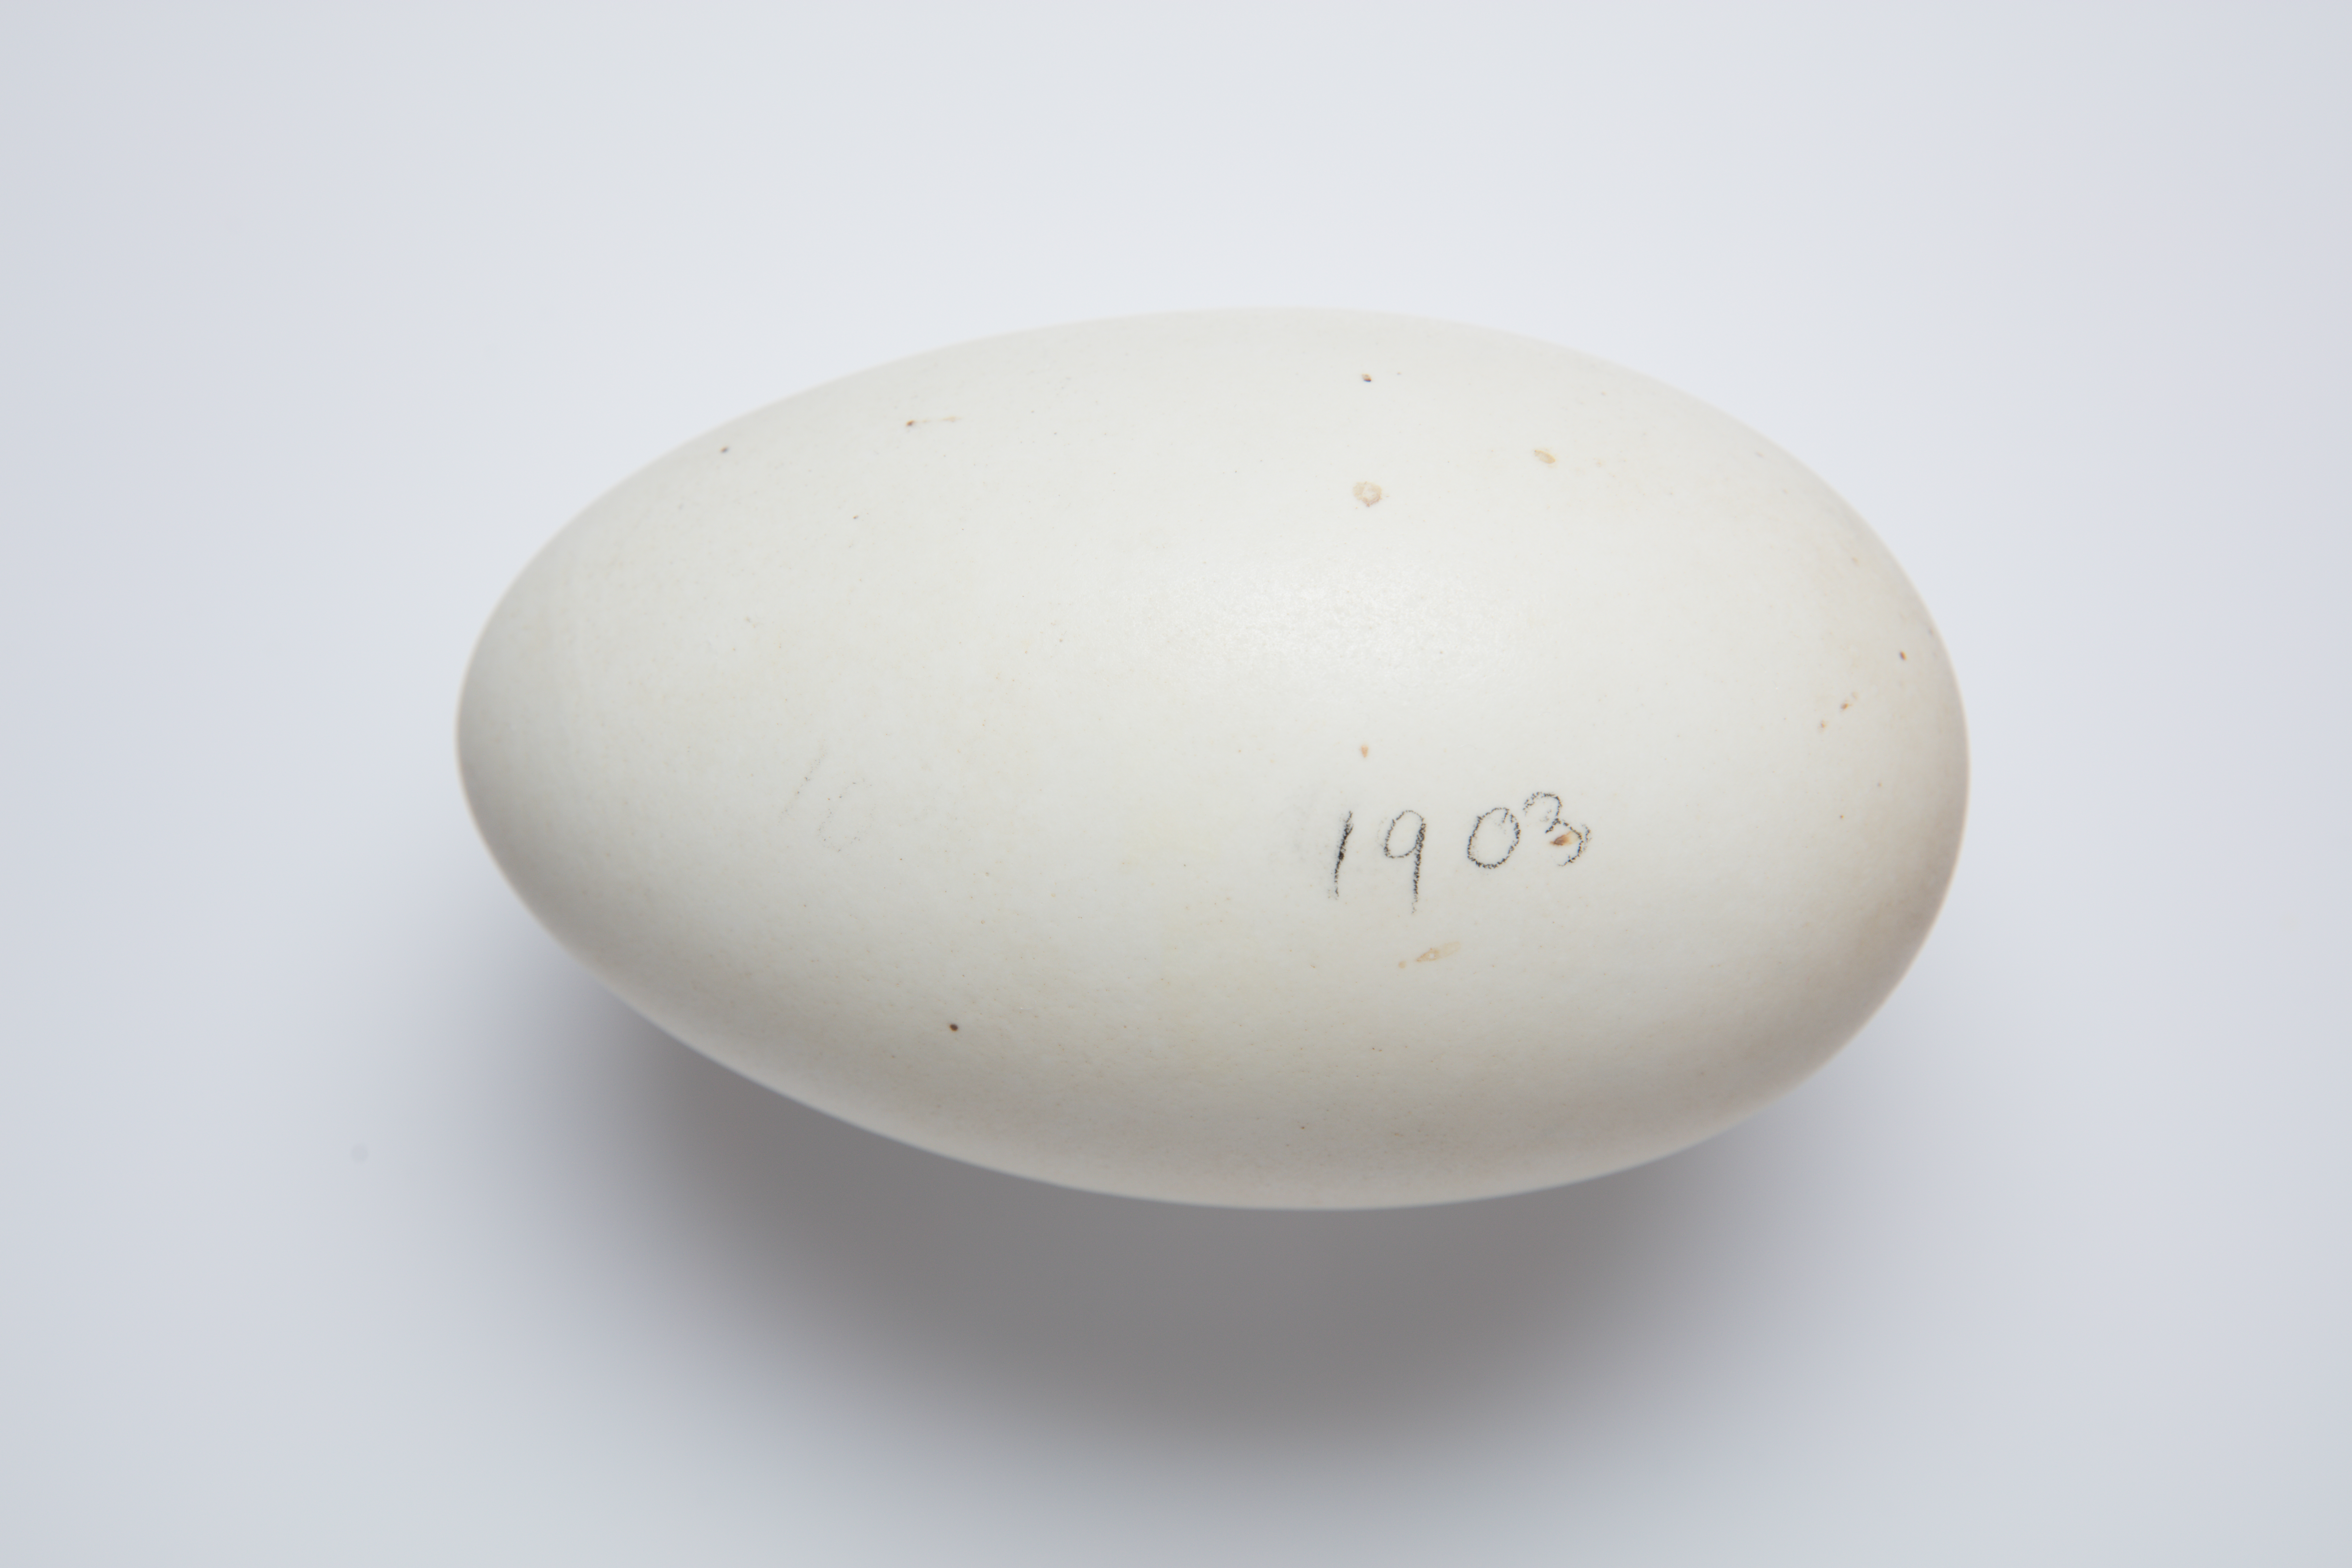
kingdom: Animalia
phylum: Chordata
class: Aves
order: Apterygiformes
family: Apterygidae
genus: Apteryx
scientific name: Apteryx mantelli
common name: North island brown kiwi
